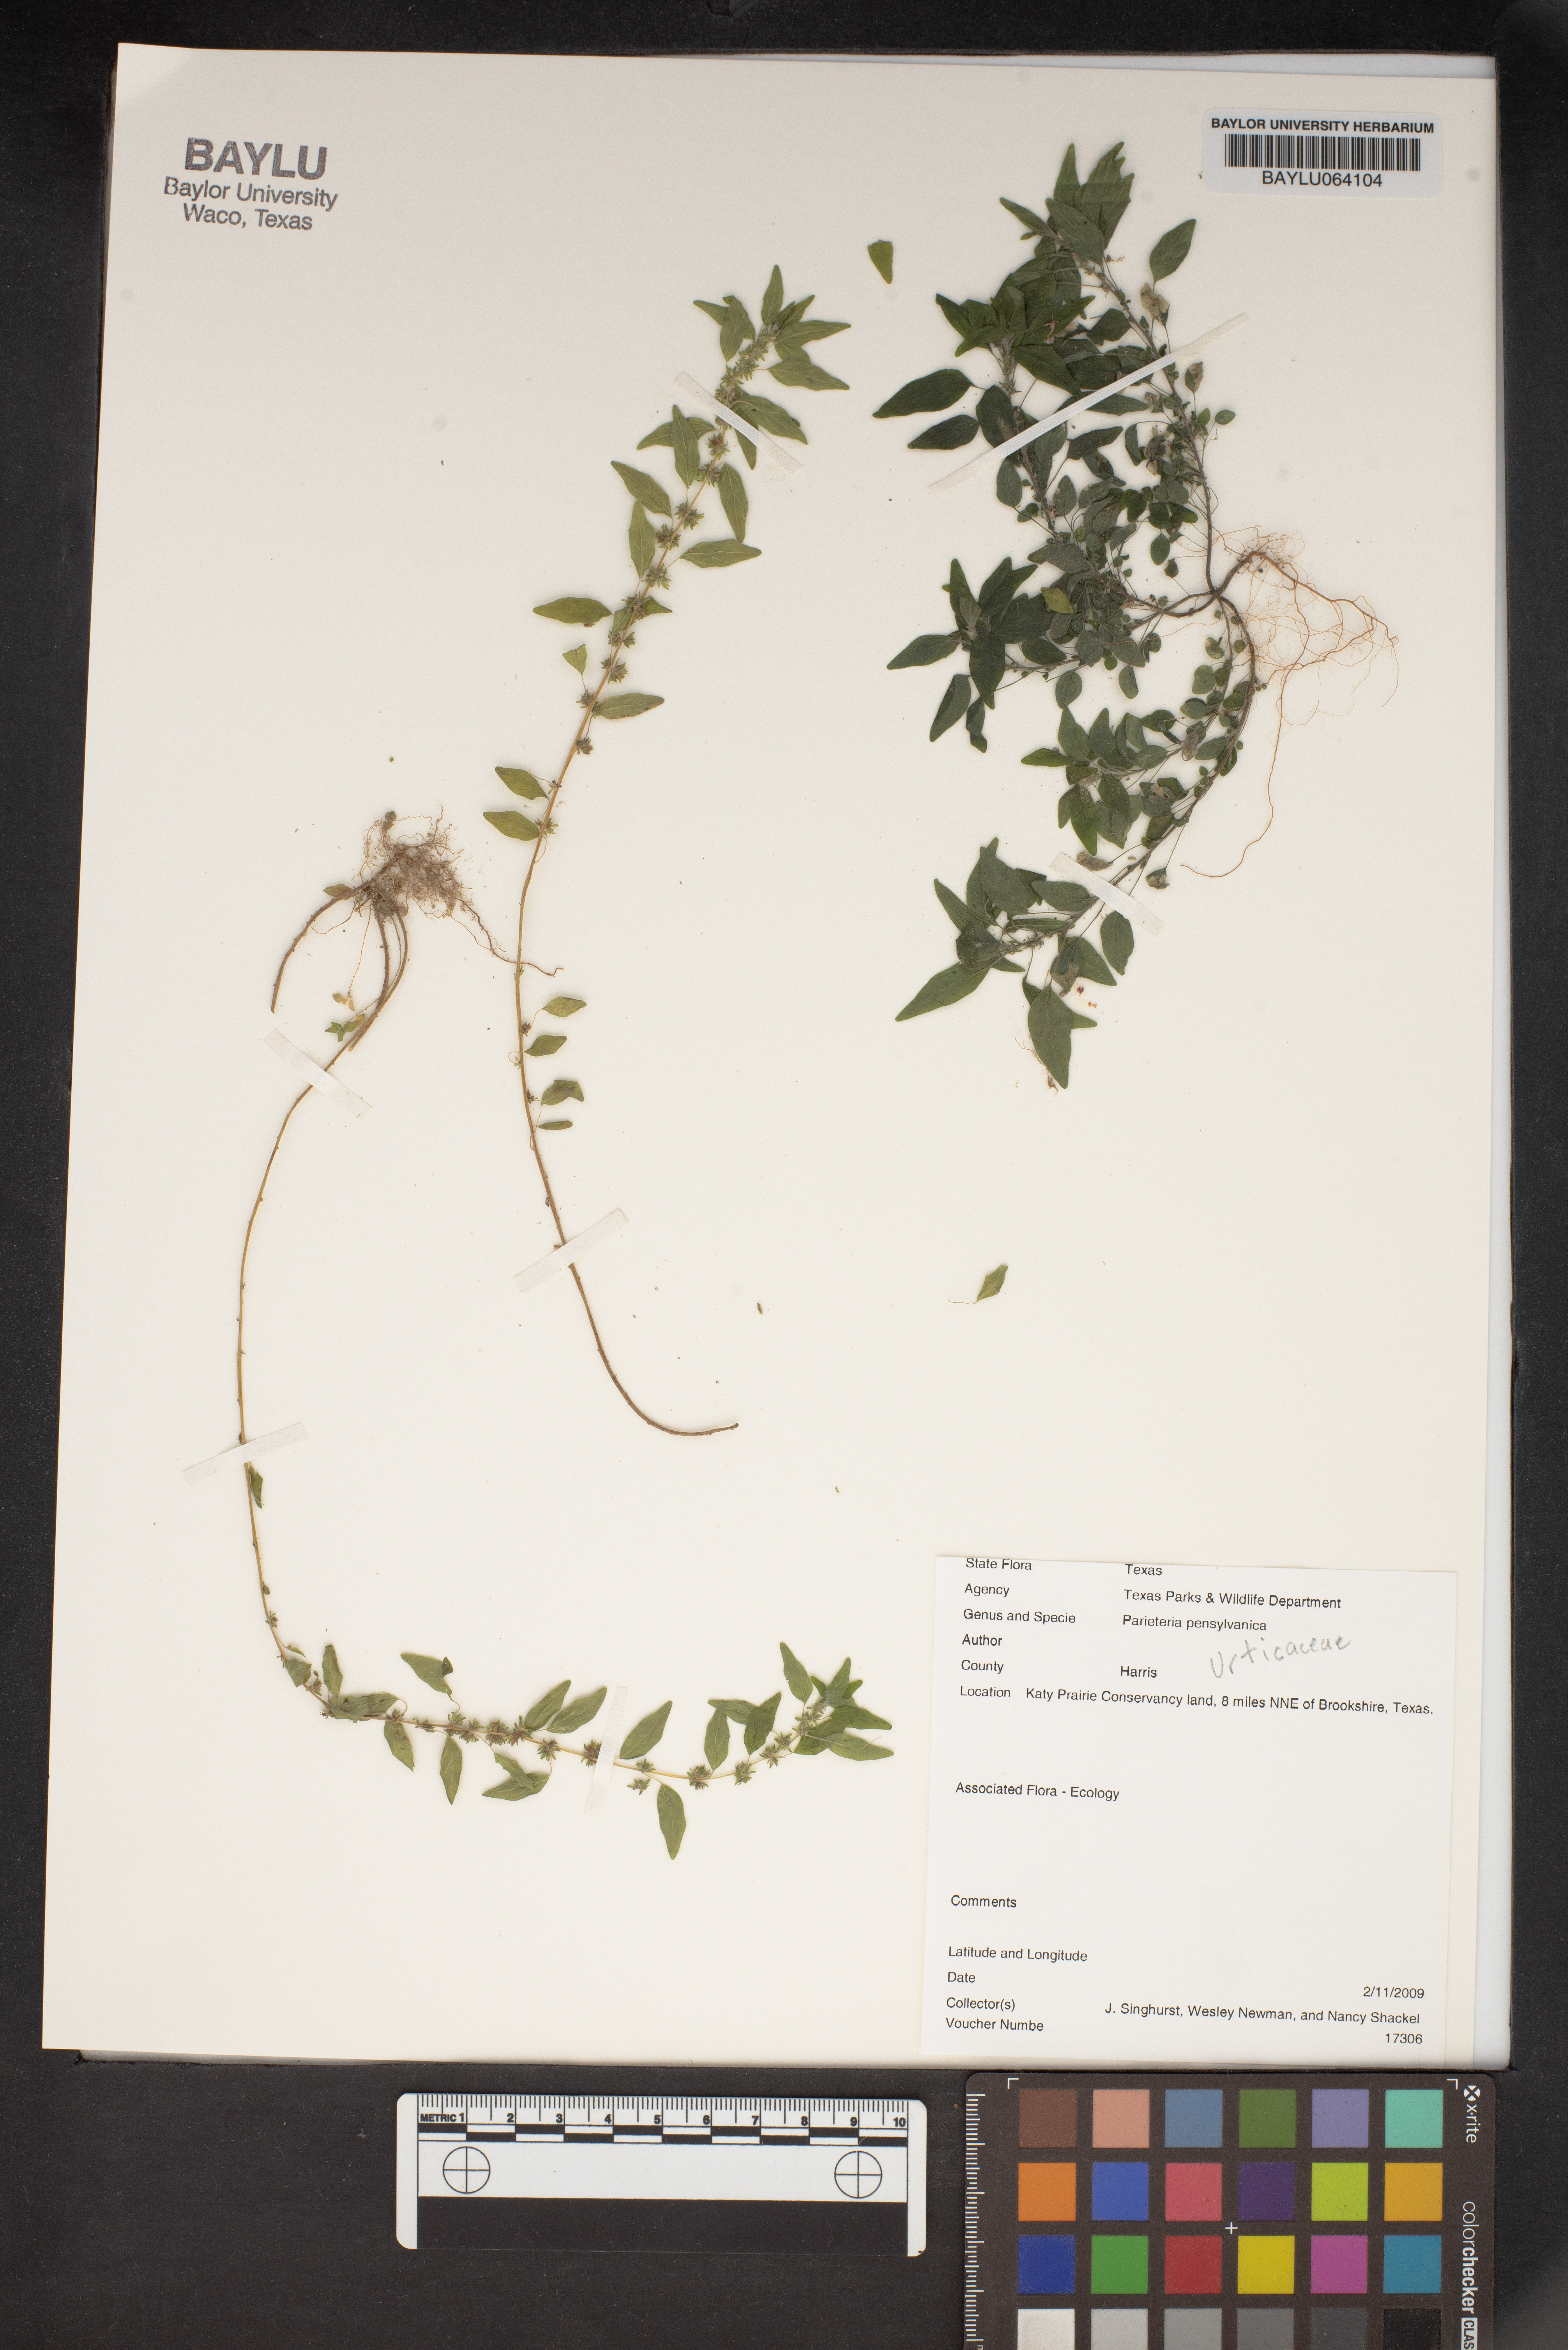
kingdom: Plantae
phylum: Tracheophyta
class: Magnoliopsida
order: Rosales
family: Urticaceae
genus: Parietaria
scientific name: Parietaria pensylvanica
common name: Pennsylvania pellitory
